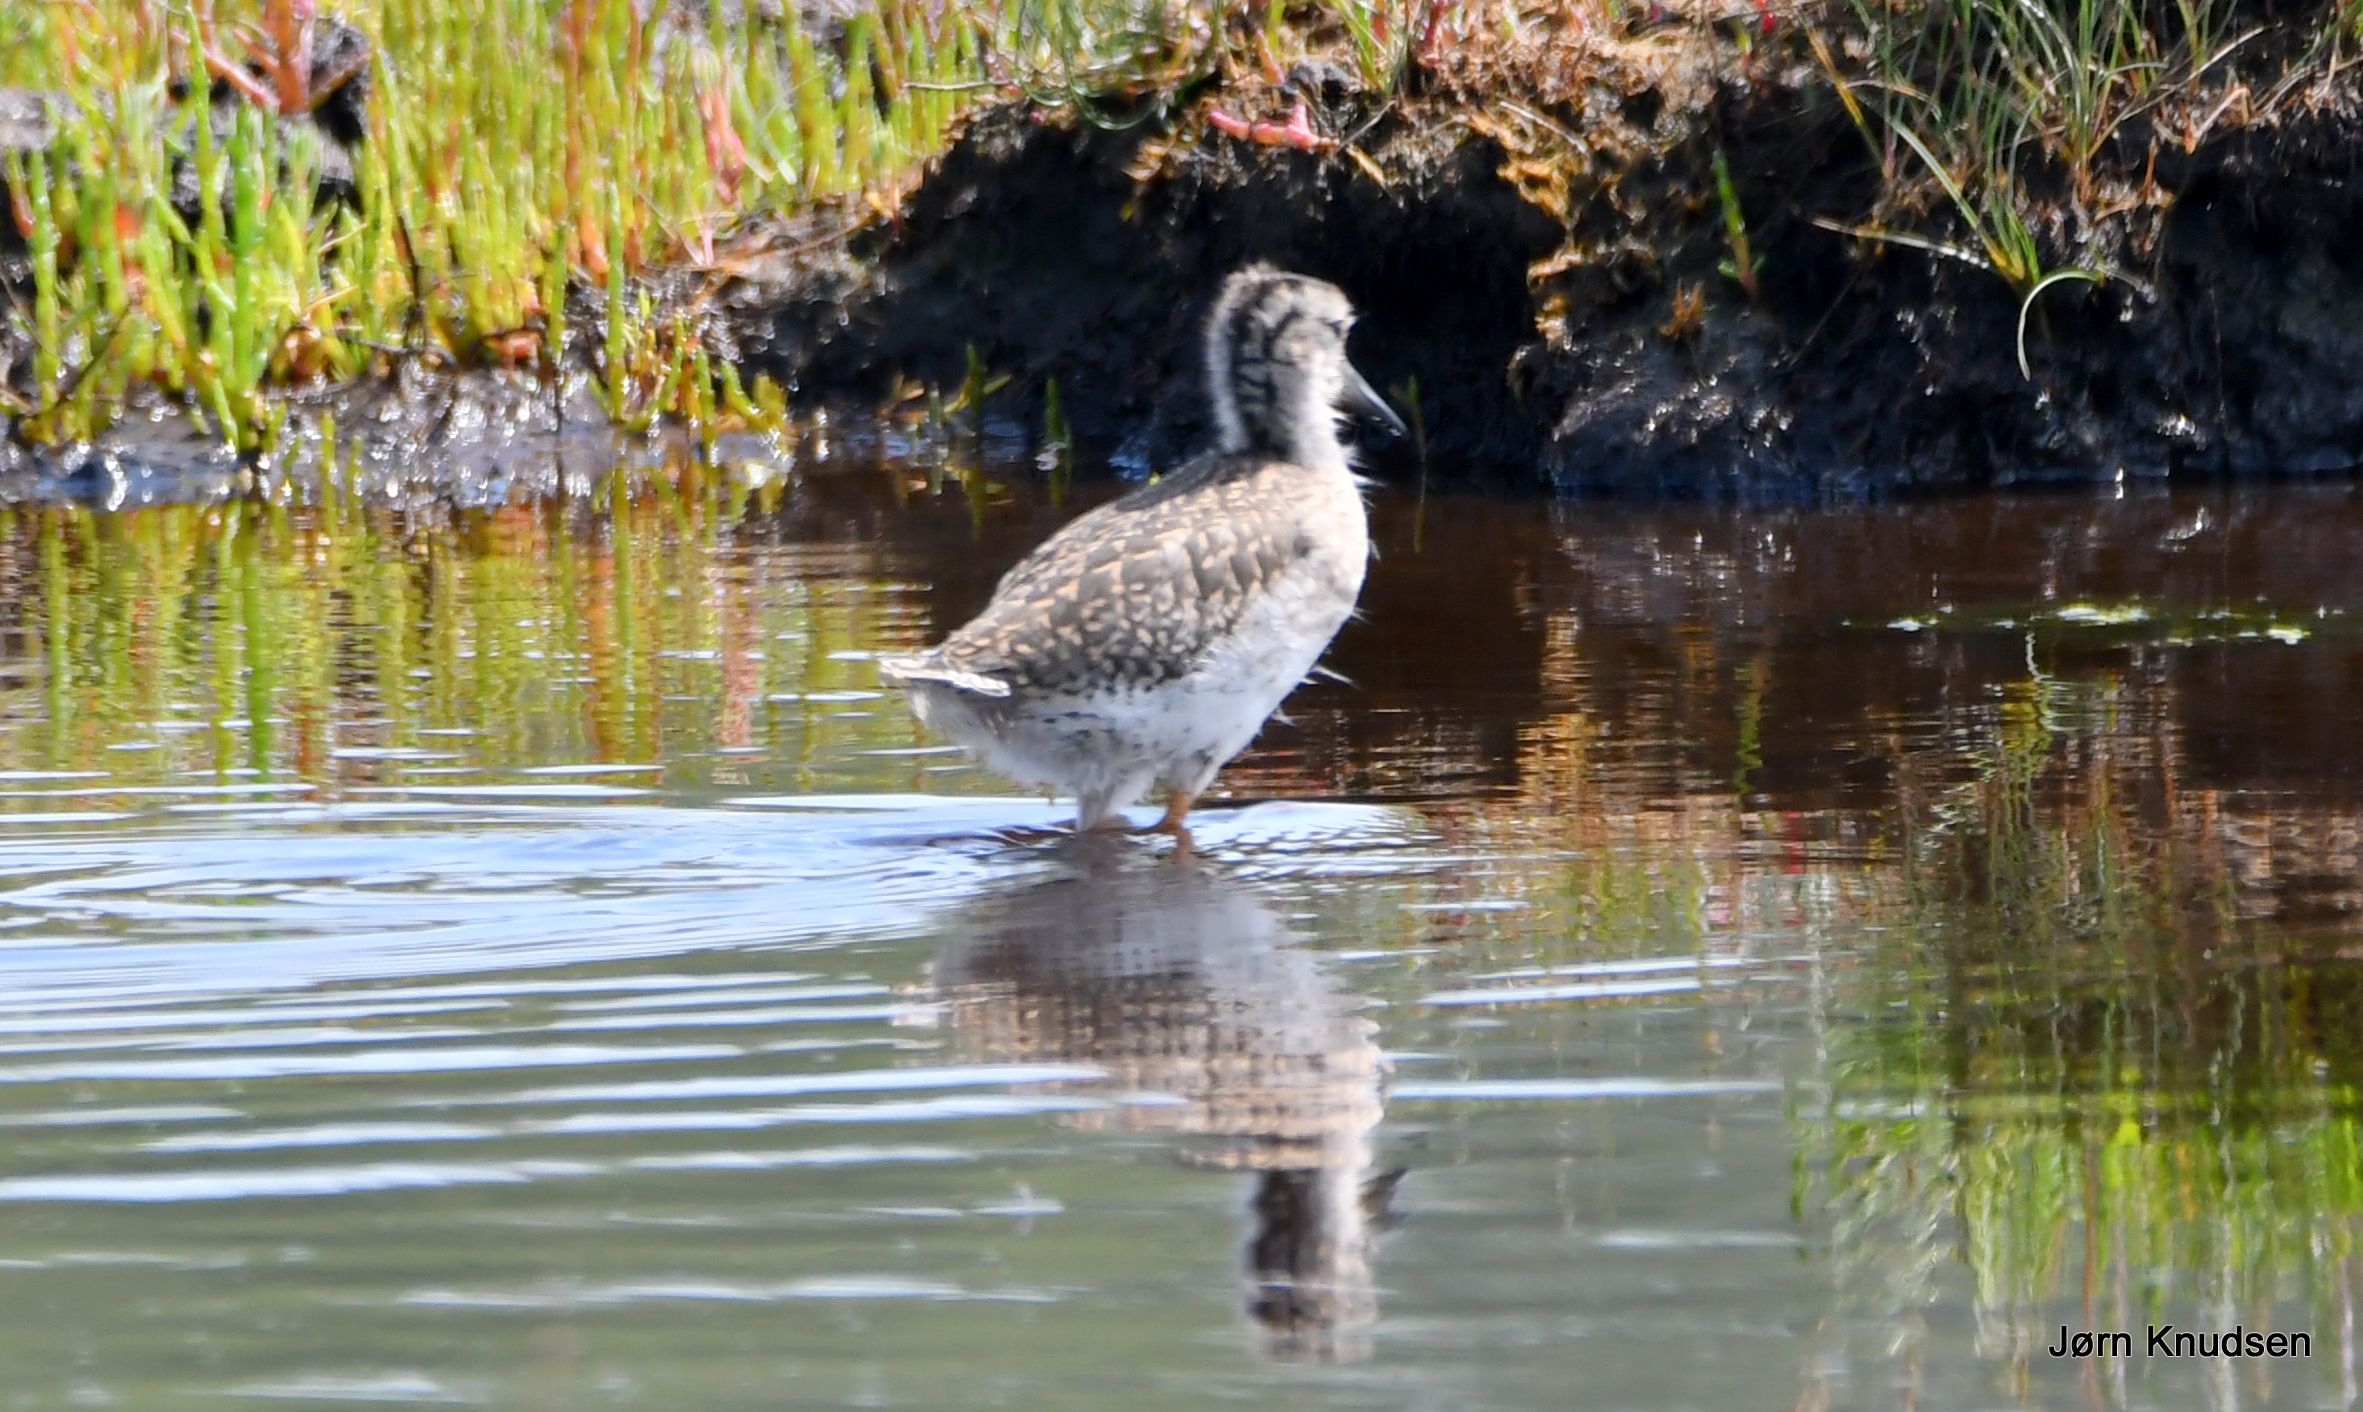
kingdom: Animalia
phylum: Chordata
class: Aves
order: Charadriiformes
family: Scolopacidae
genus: Tringa
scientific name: Tringa totanus
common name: Rødben
